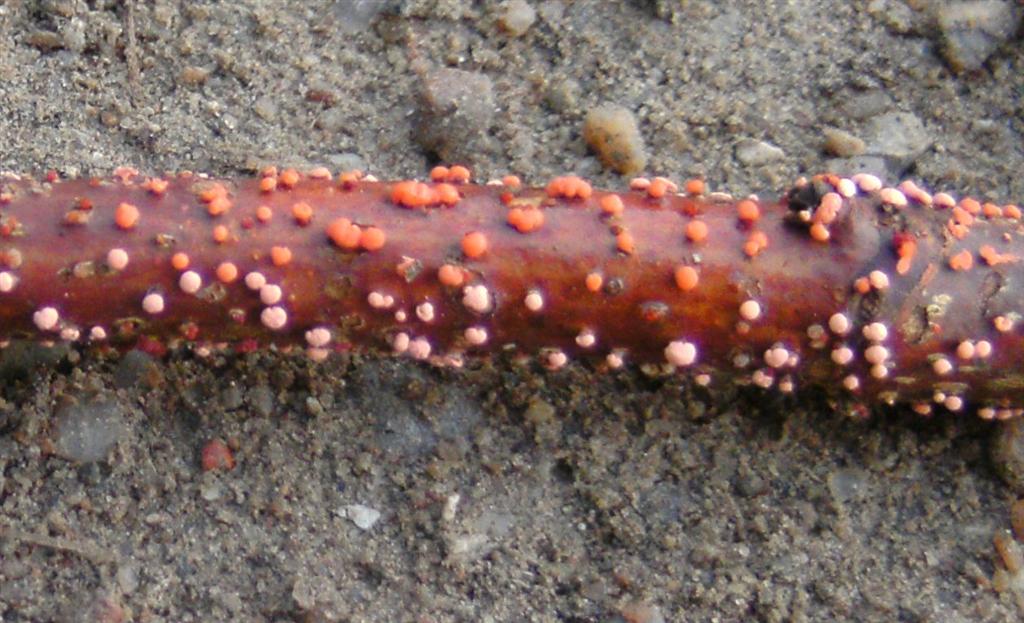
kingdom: Fungi
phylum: Ascomycota
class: Sordariomycetes
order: Hypocreales
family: Nectriaceae
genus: Nectria
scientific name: Nectria cinnabarina
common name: almindelig cinnobersvamp
